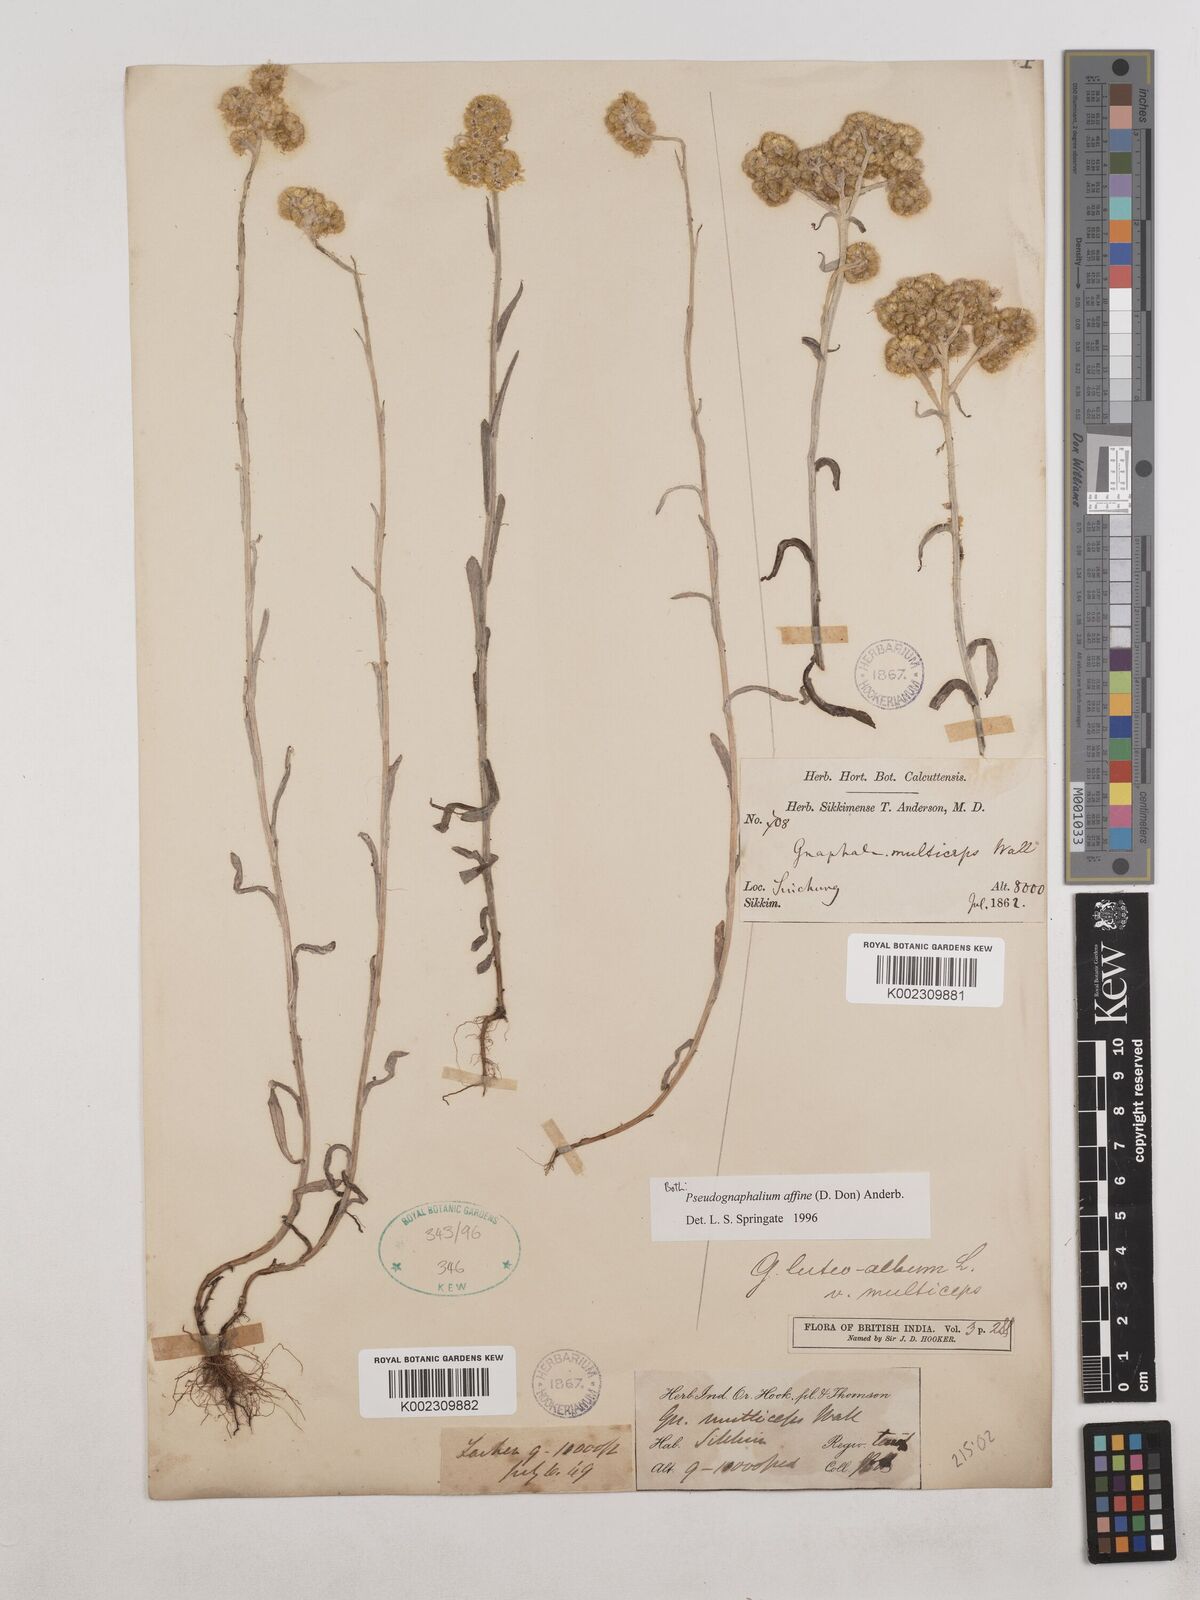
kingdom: Plantae
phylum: Tracheophyta
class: Magnoliopsida
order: Asterales
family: Asteraceae
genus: Helichrysum
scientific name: Helichrysum luteoalbum
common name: Daisy
